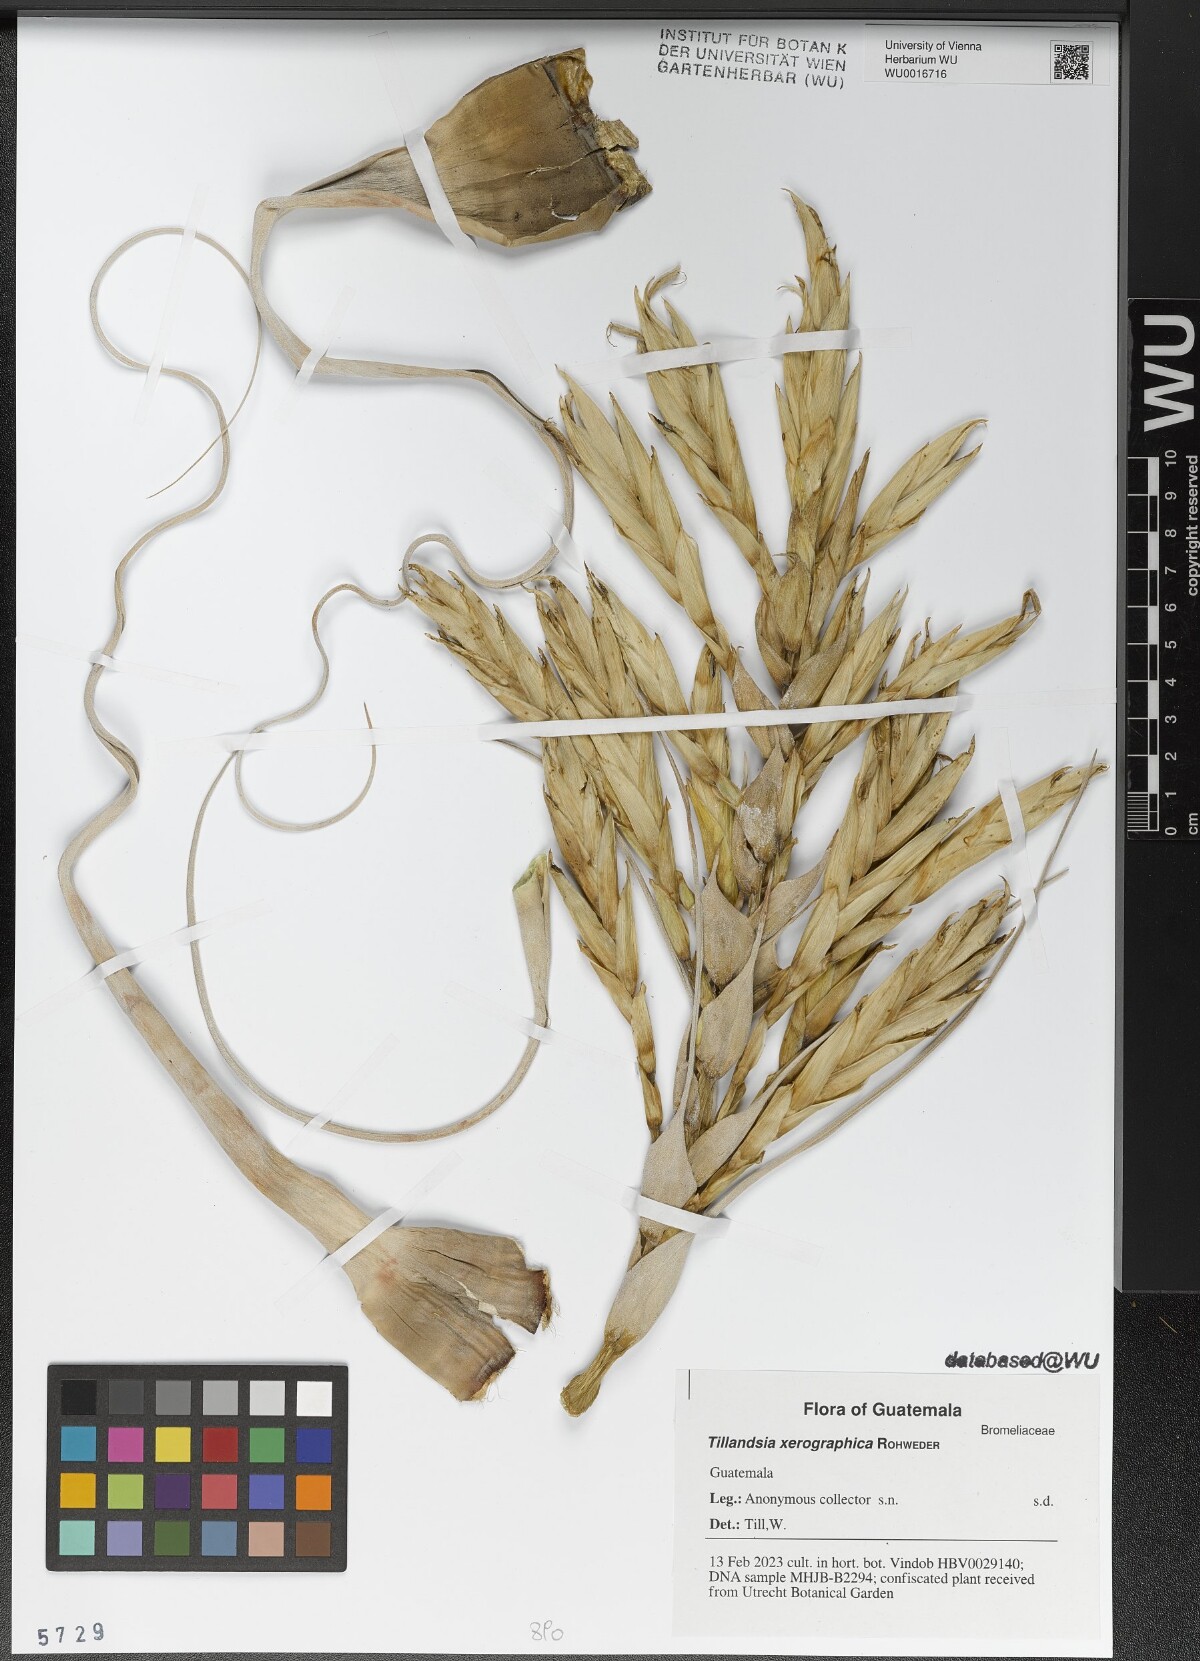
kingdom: Plantae
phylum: Tracheophyta
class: Liliopsida
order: Poales
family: Bromeliaceae
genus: Tillandsia
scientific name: Tillandsia xerographica
